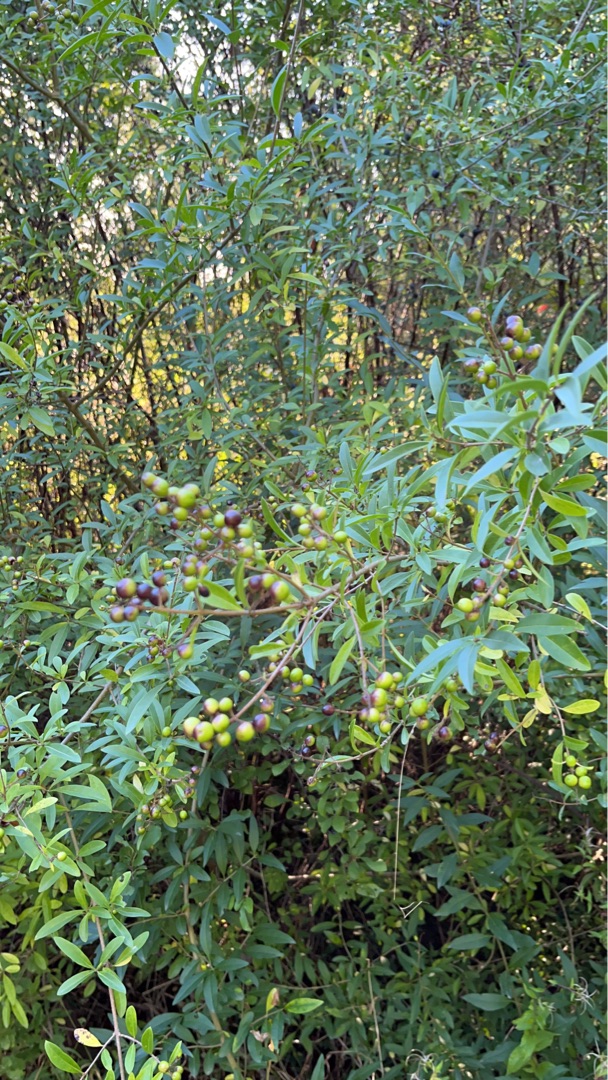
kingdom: Plantae
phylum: Tracheophyta
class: Magnoliopsida
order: Lamiales
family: Oleaceae
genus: Ligustrum
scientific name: Ligustrum vulgare
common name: Liguster
